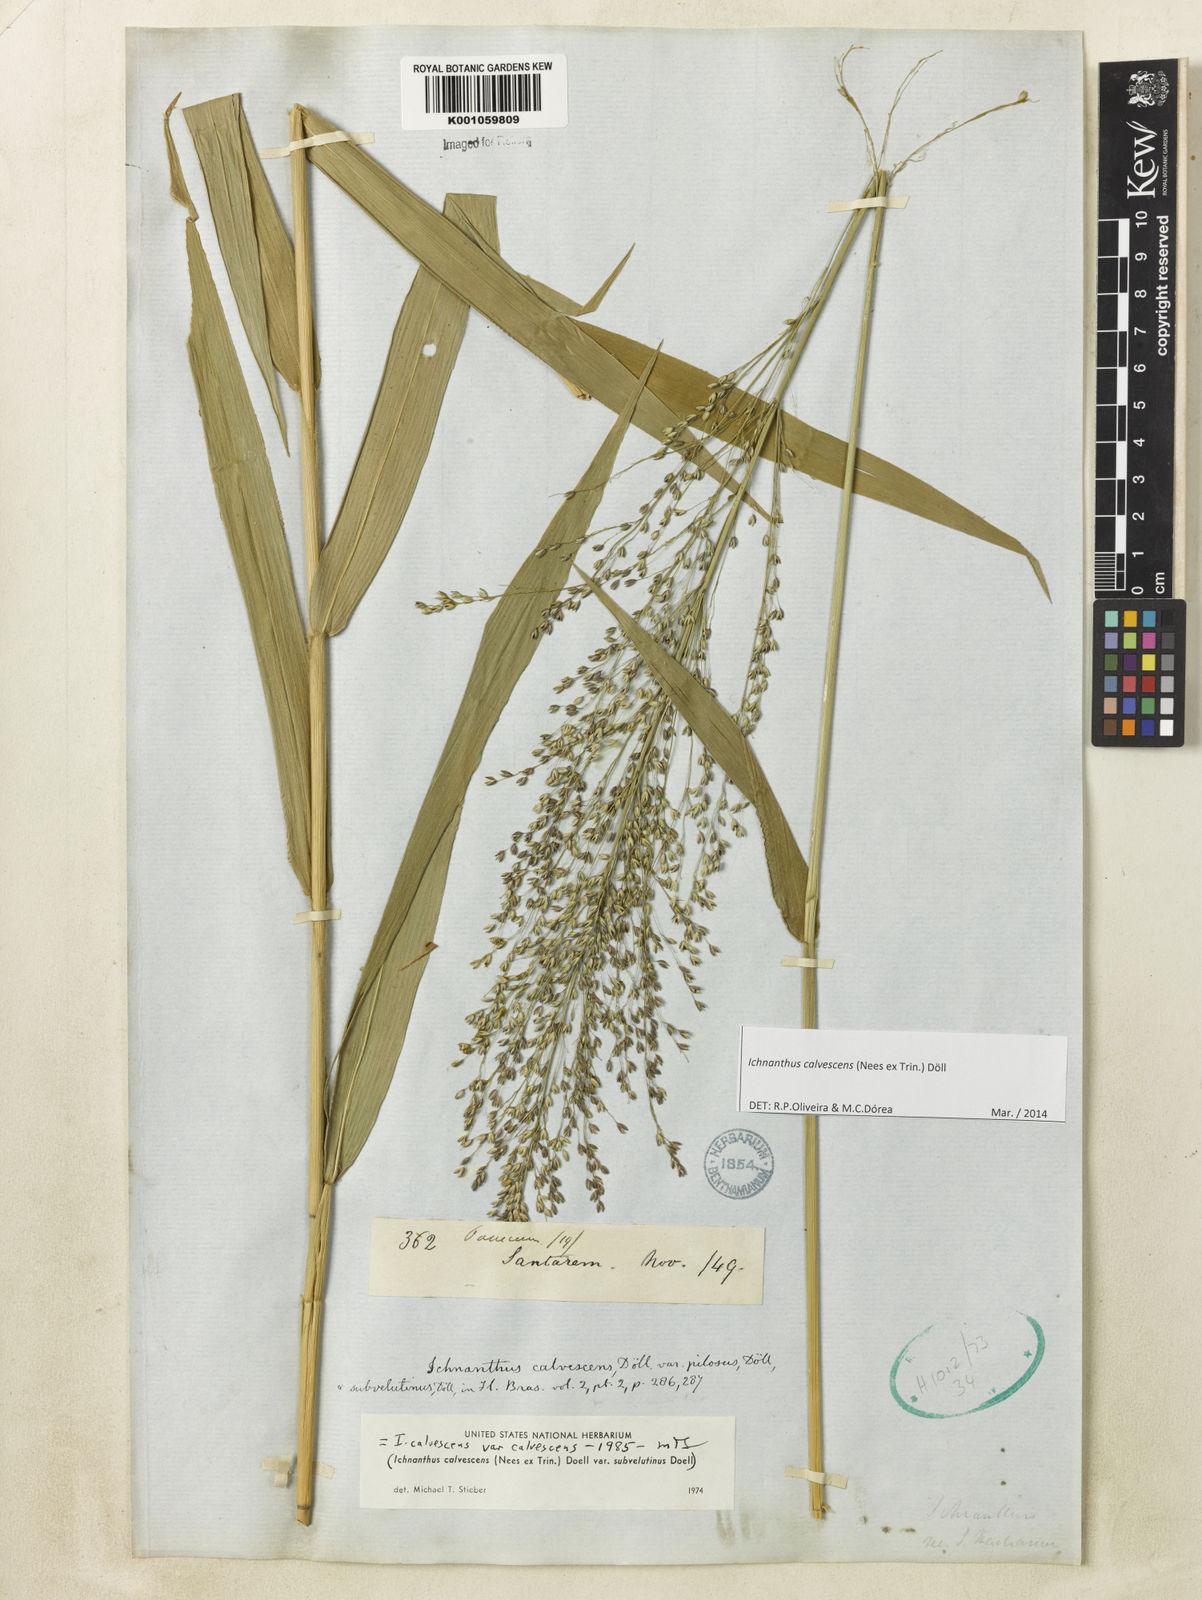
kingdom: Plantae
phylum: Tracheophyta
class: Liliopsida
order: Poales
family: Poaceae
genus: Ichnanthus
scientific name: Ichnanthus
